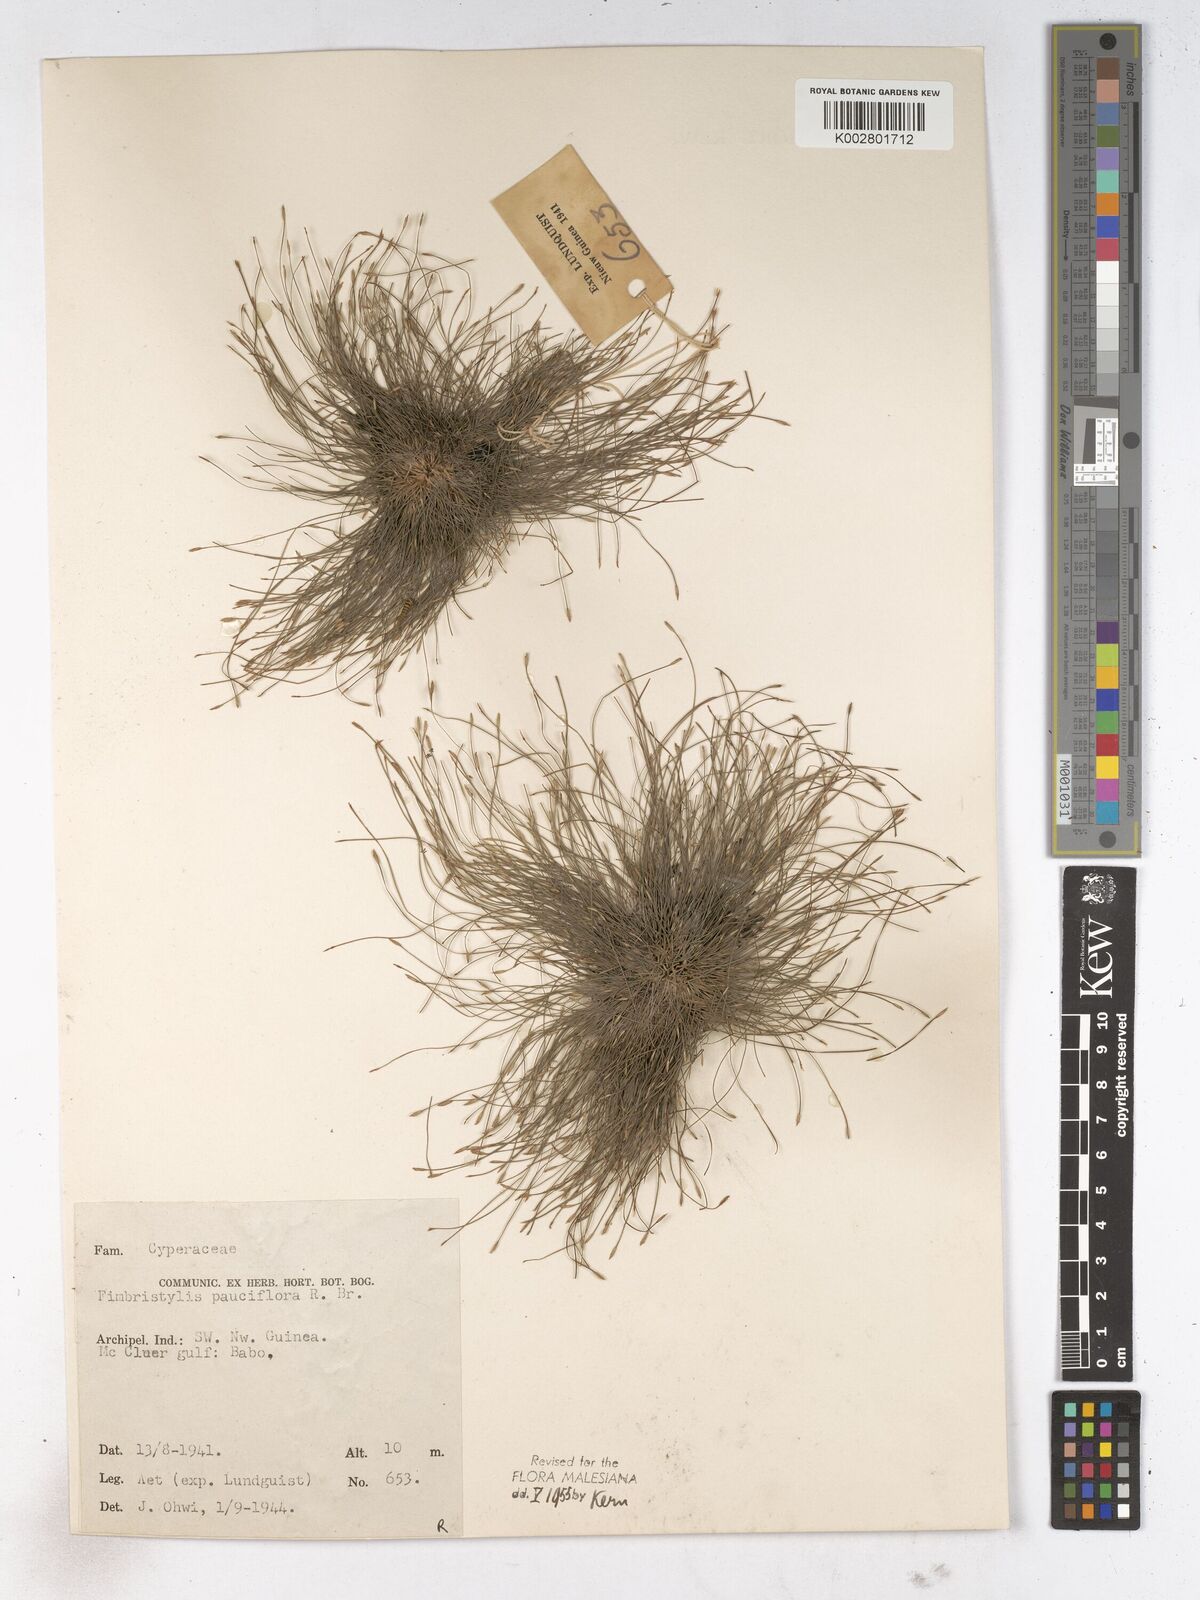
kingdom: Plantae
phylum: Tracheophyta
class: Liliopsida
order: Poales
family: Cyperaceae
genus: Fimbristylis
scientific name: Fimbristylis pauciflora
